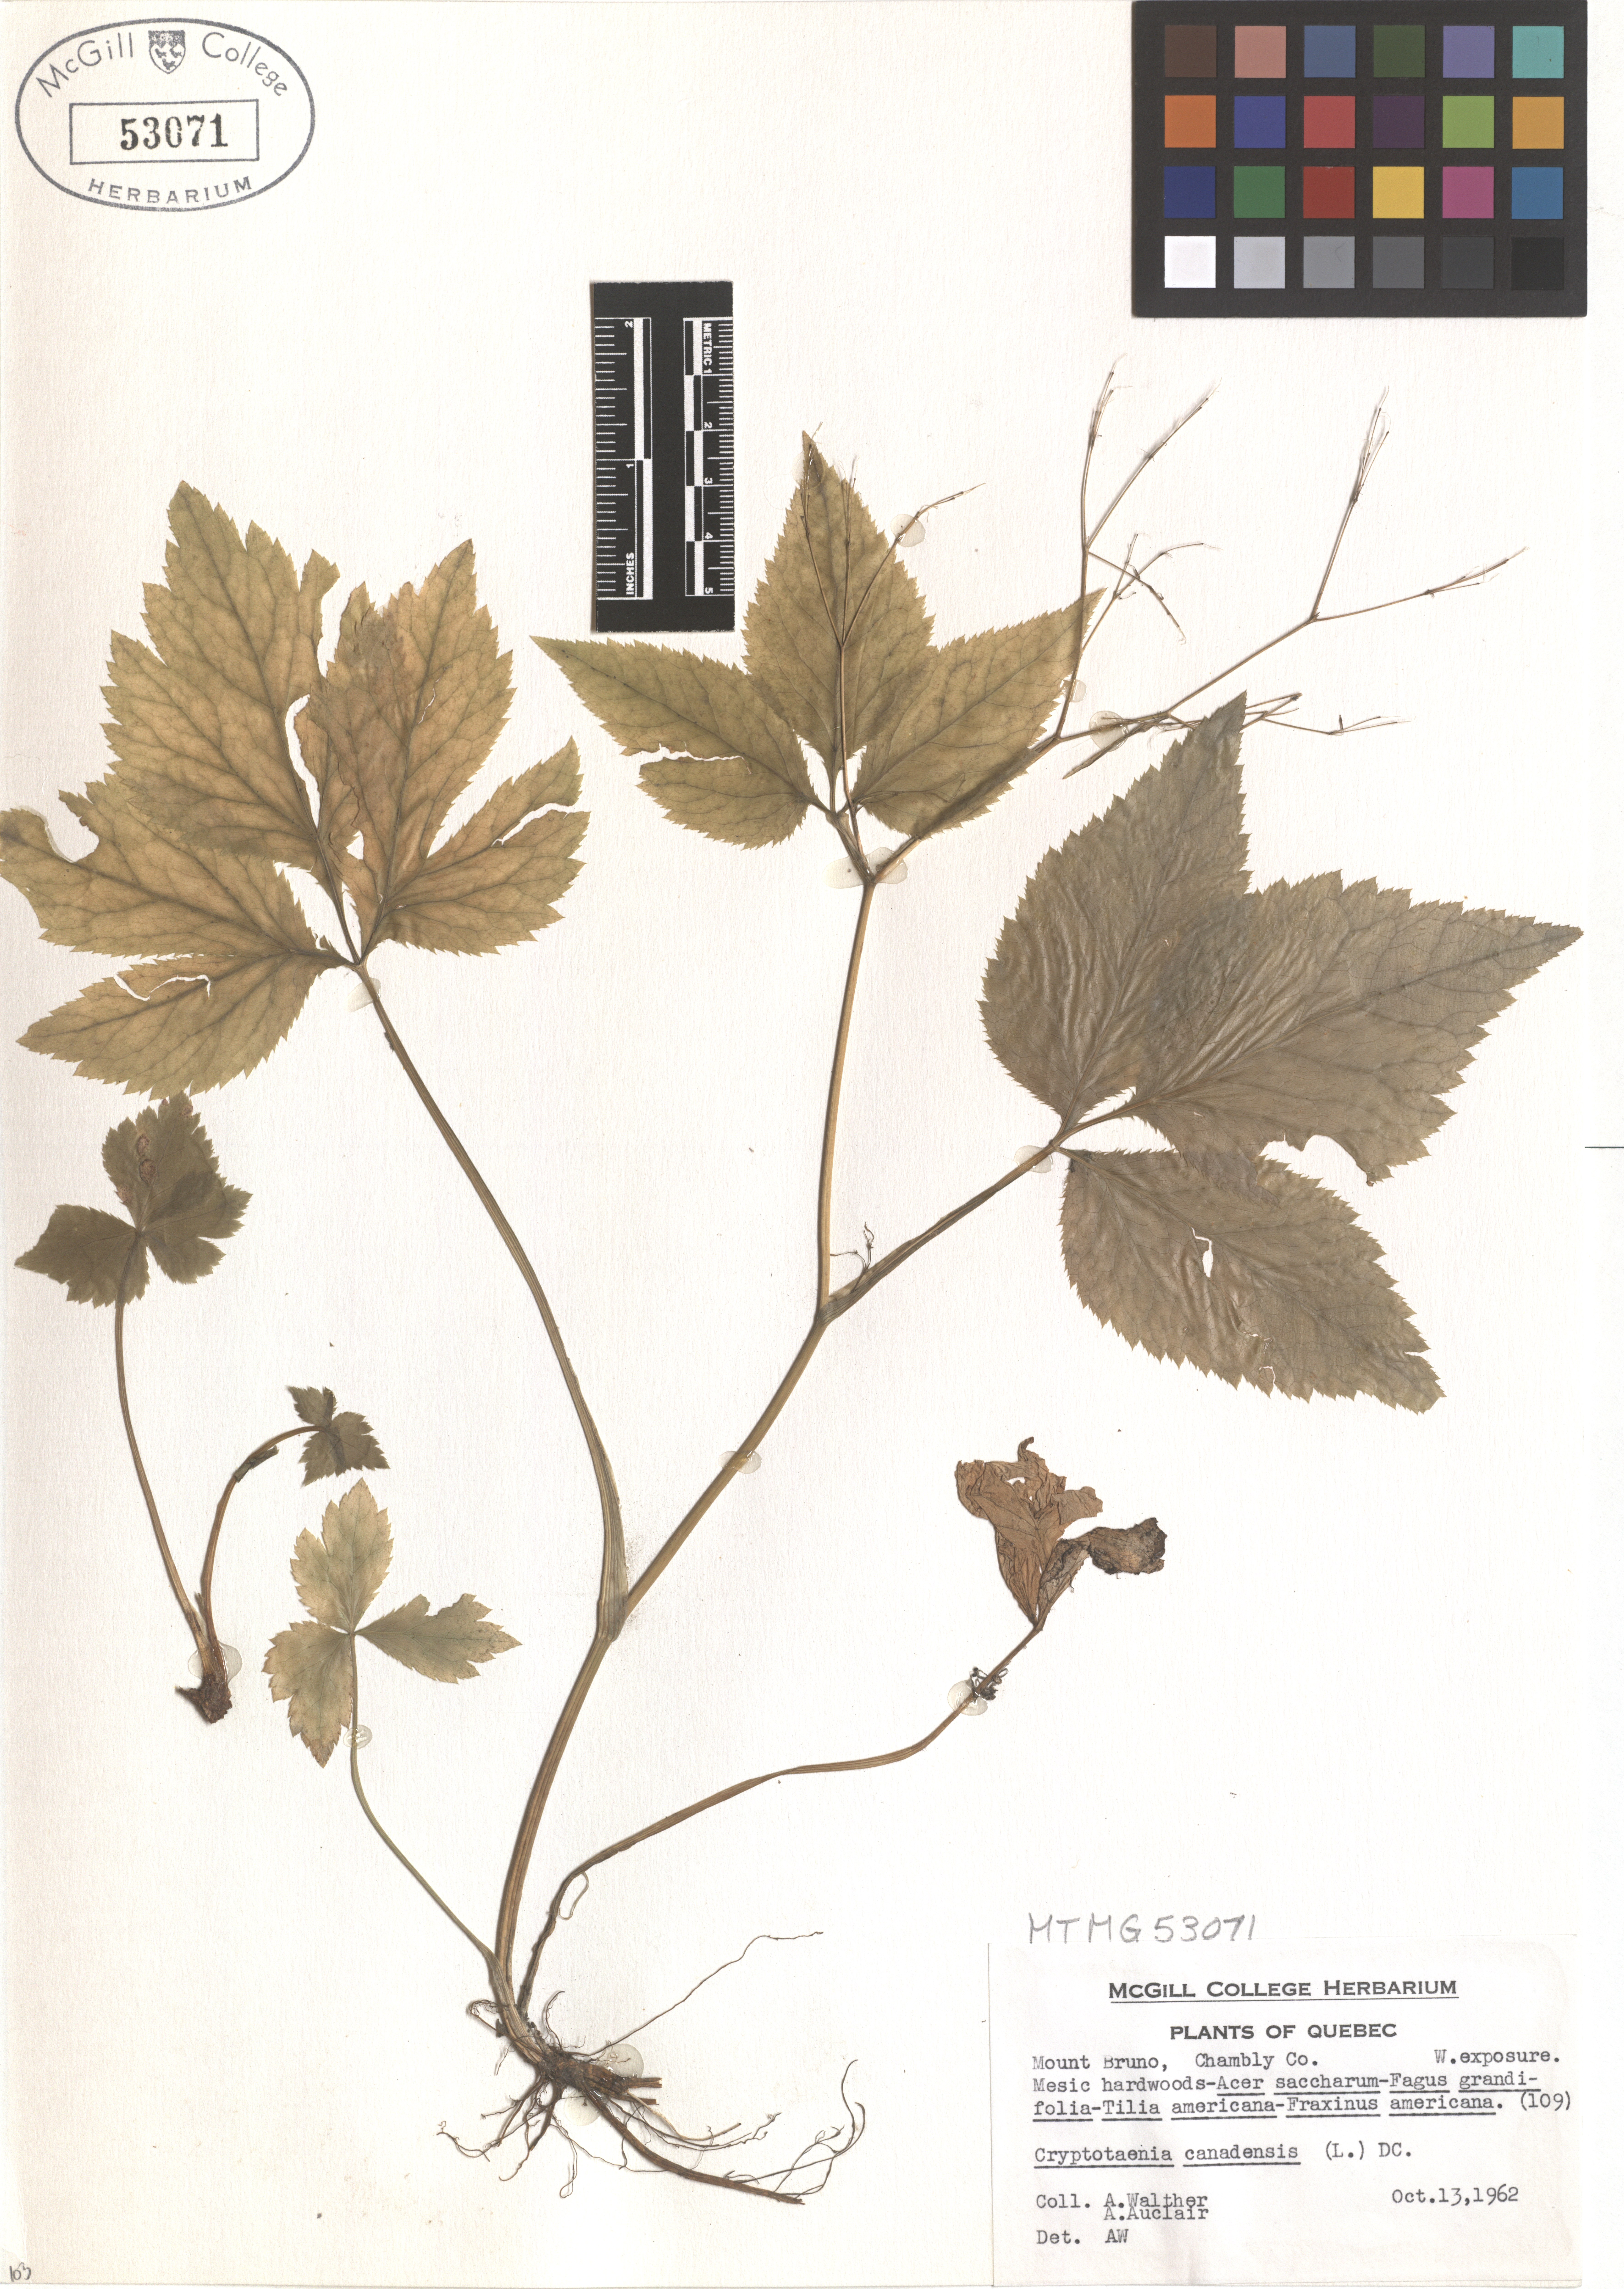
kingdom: Plantae
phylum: Tracheophyta
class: Magnoliopsida
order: Apiales
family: Apiaceae
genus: Cryptotaenia
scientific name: Cryptotaenia canadensis
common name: Honewort
